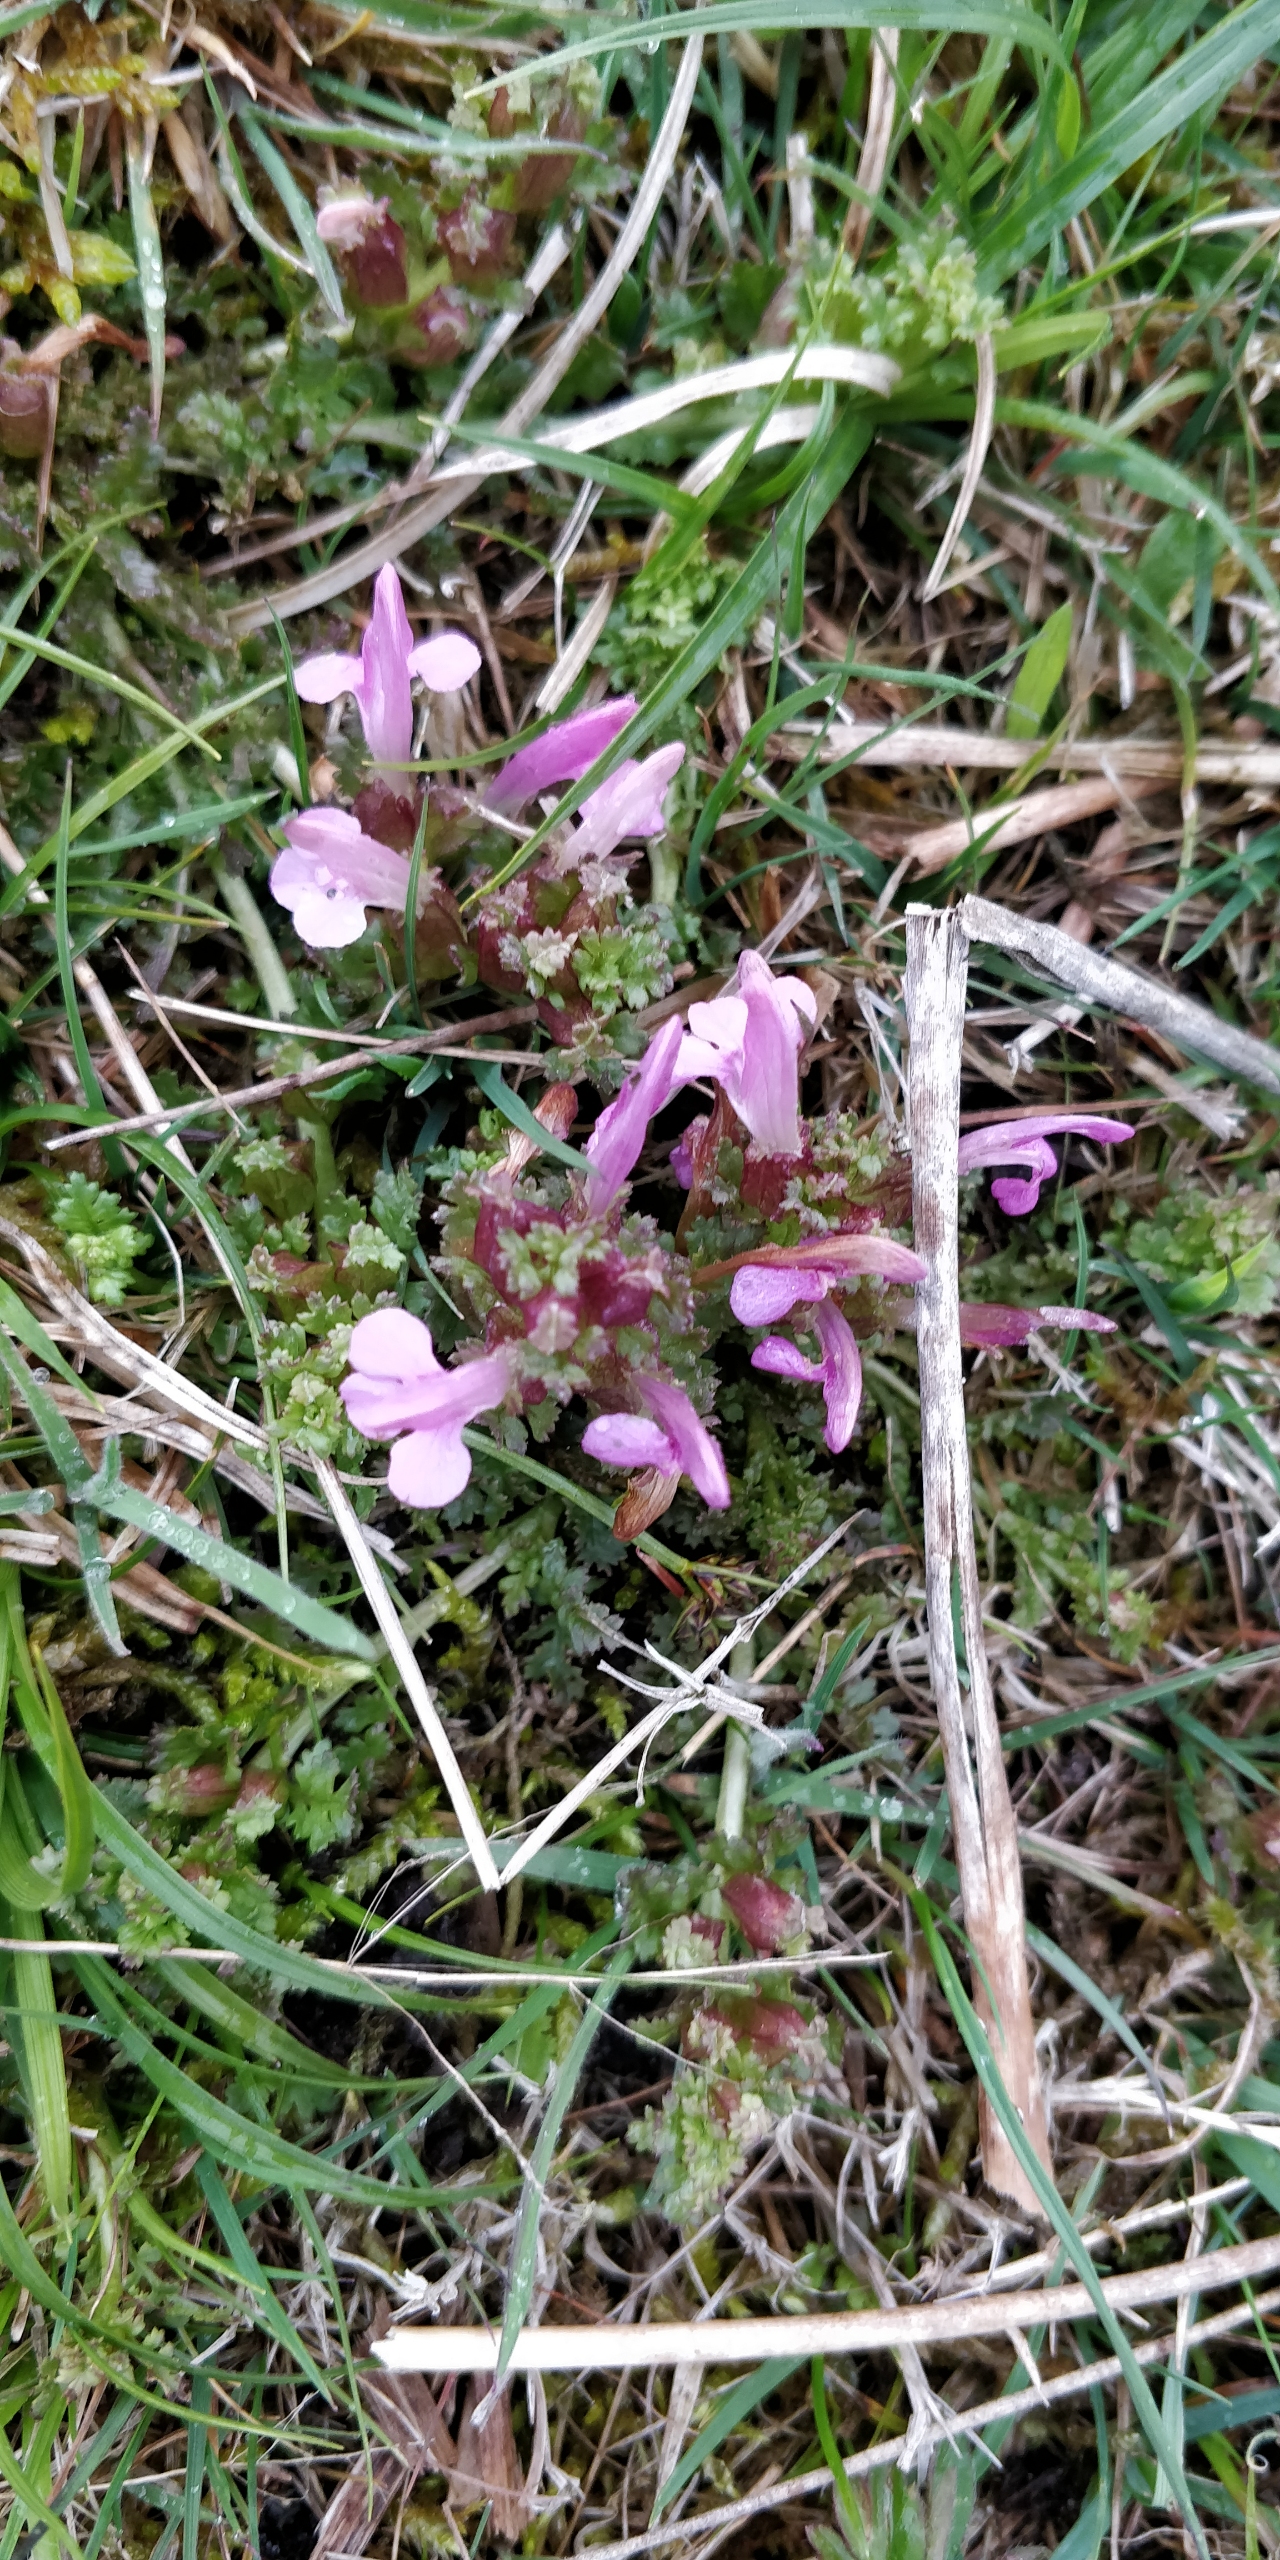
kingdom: Plantae
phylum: Tracheophyta
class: Magnoliopsida
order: Lamiales
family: Orobanchaceae
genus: Pedicularis
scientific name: Pedicularis sylvatica
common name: Mose-troldurt
